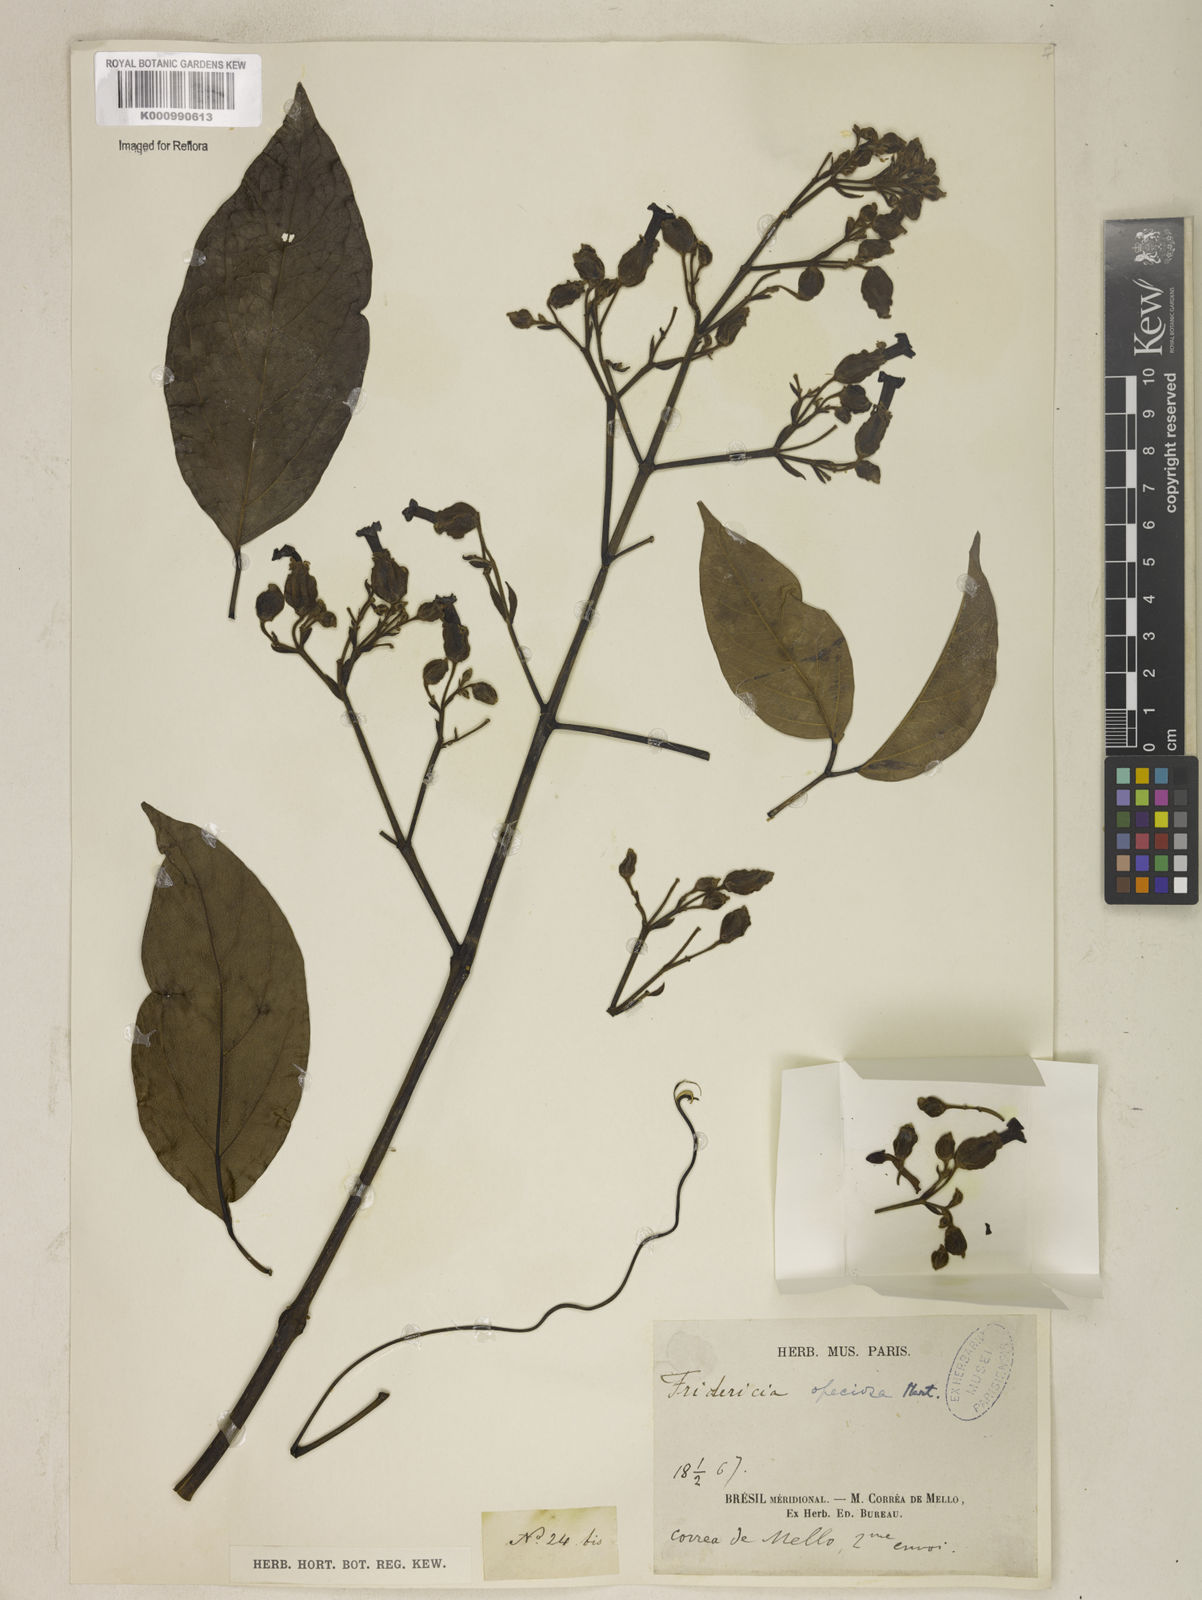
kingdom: Plantae
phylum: Tracheophyta
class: Magnoliopsida
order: Lamiales
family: Bignoniaceae
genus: Fridericia
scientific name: Fridericia speciosa
